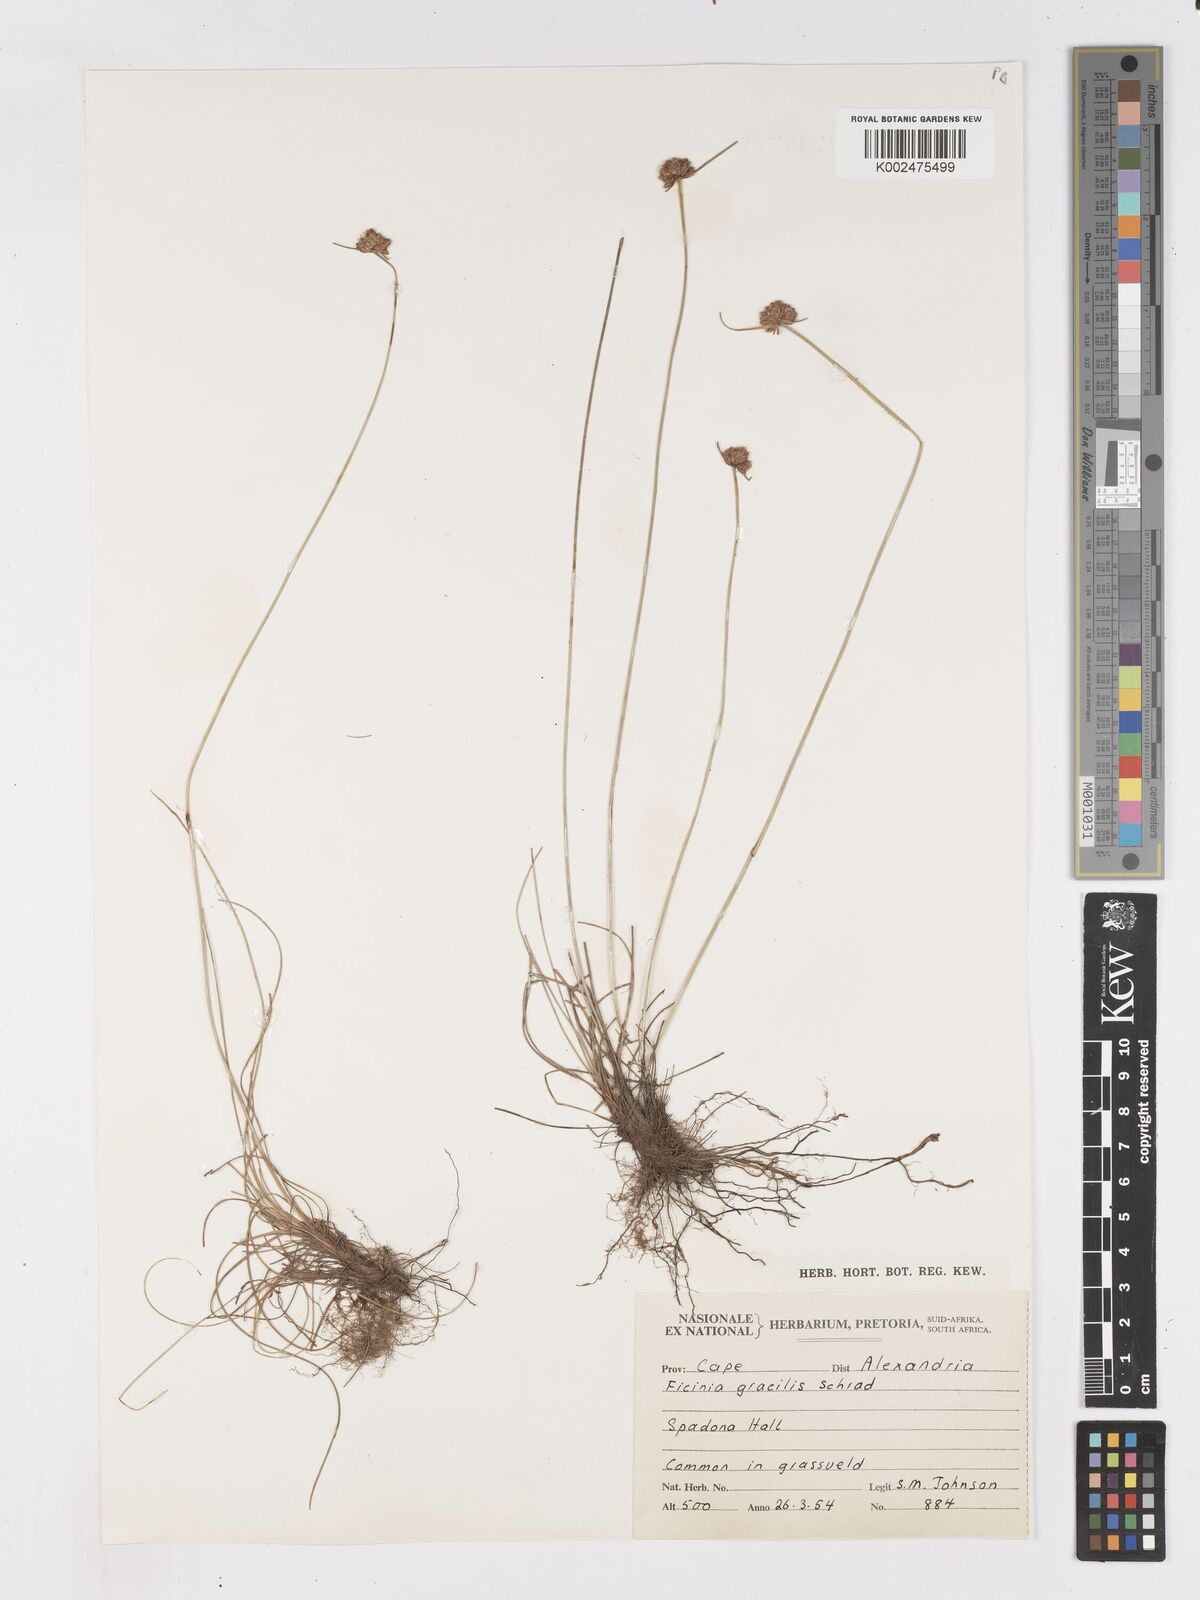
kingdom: Plantae
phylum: Tracheophyta
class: Liliopsida
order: Poales
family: Cyperaceae
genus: Ficinia
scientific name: Ficinia gracilis
